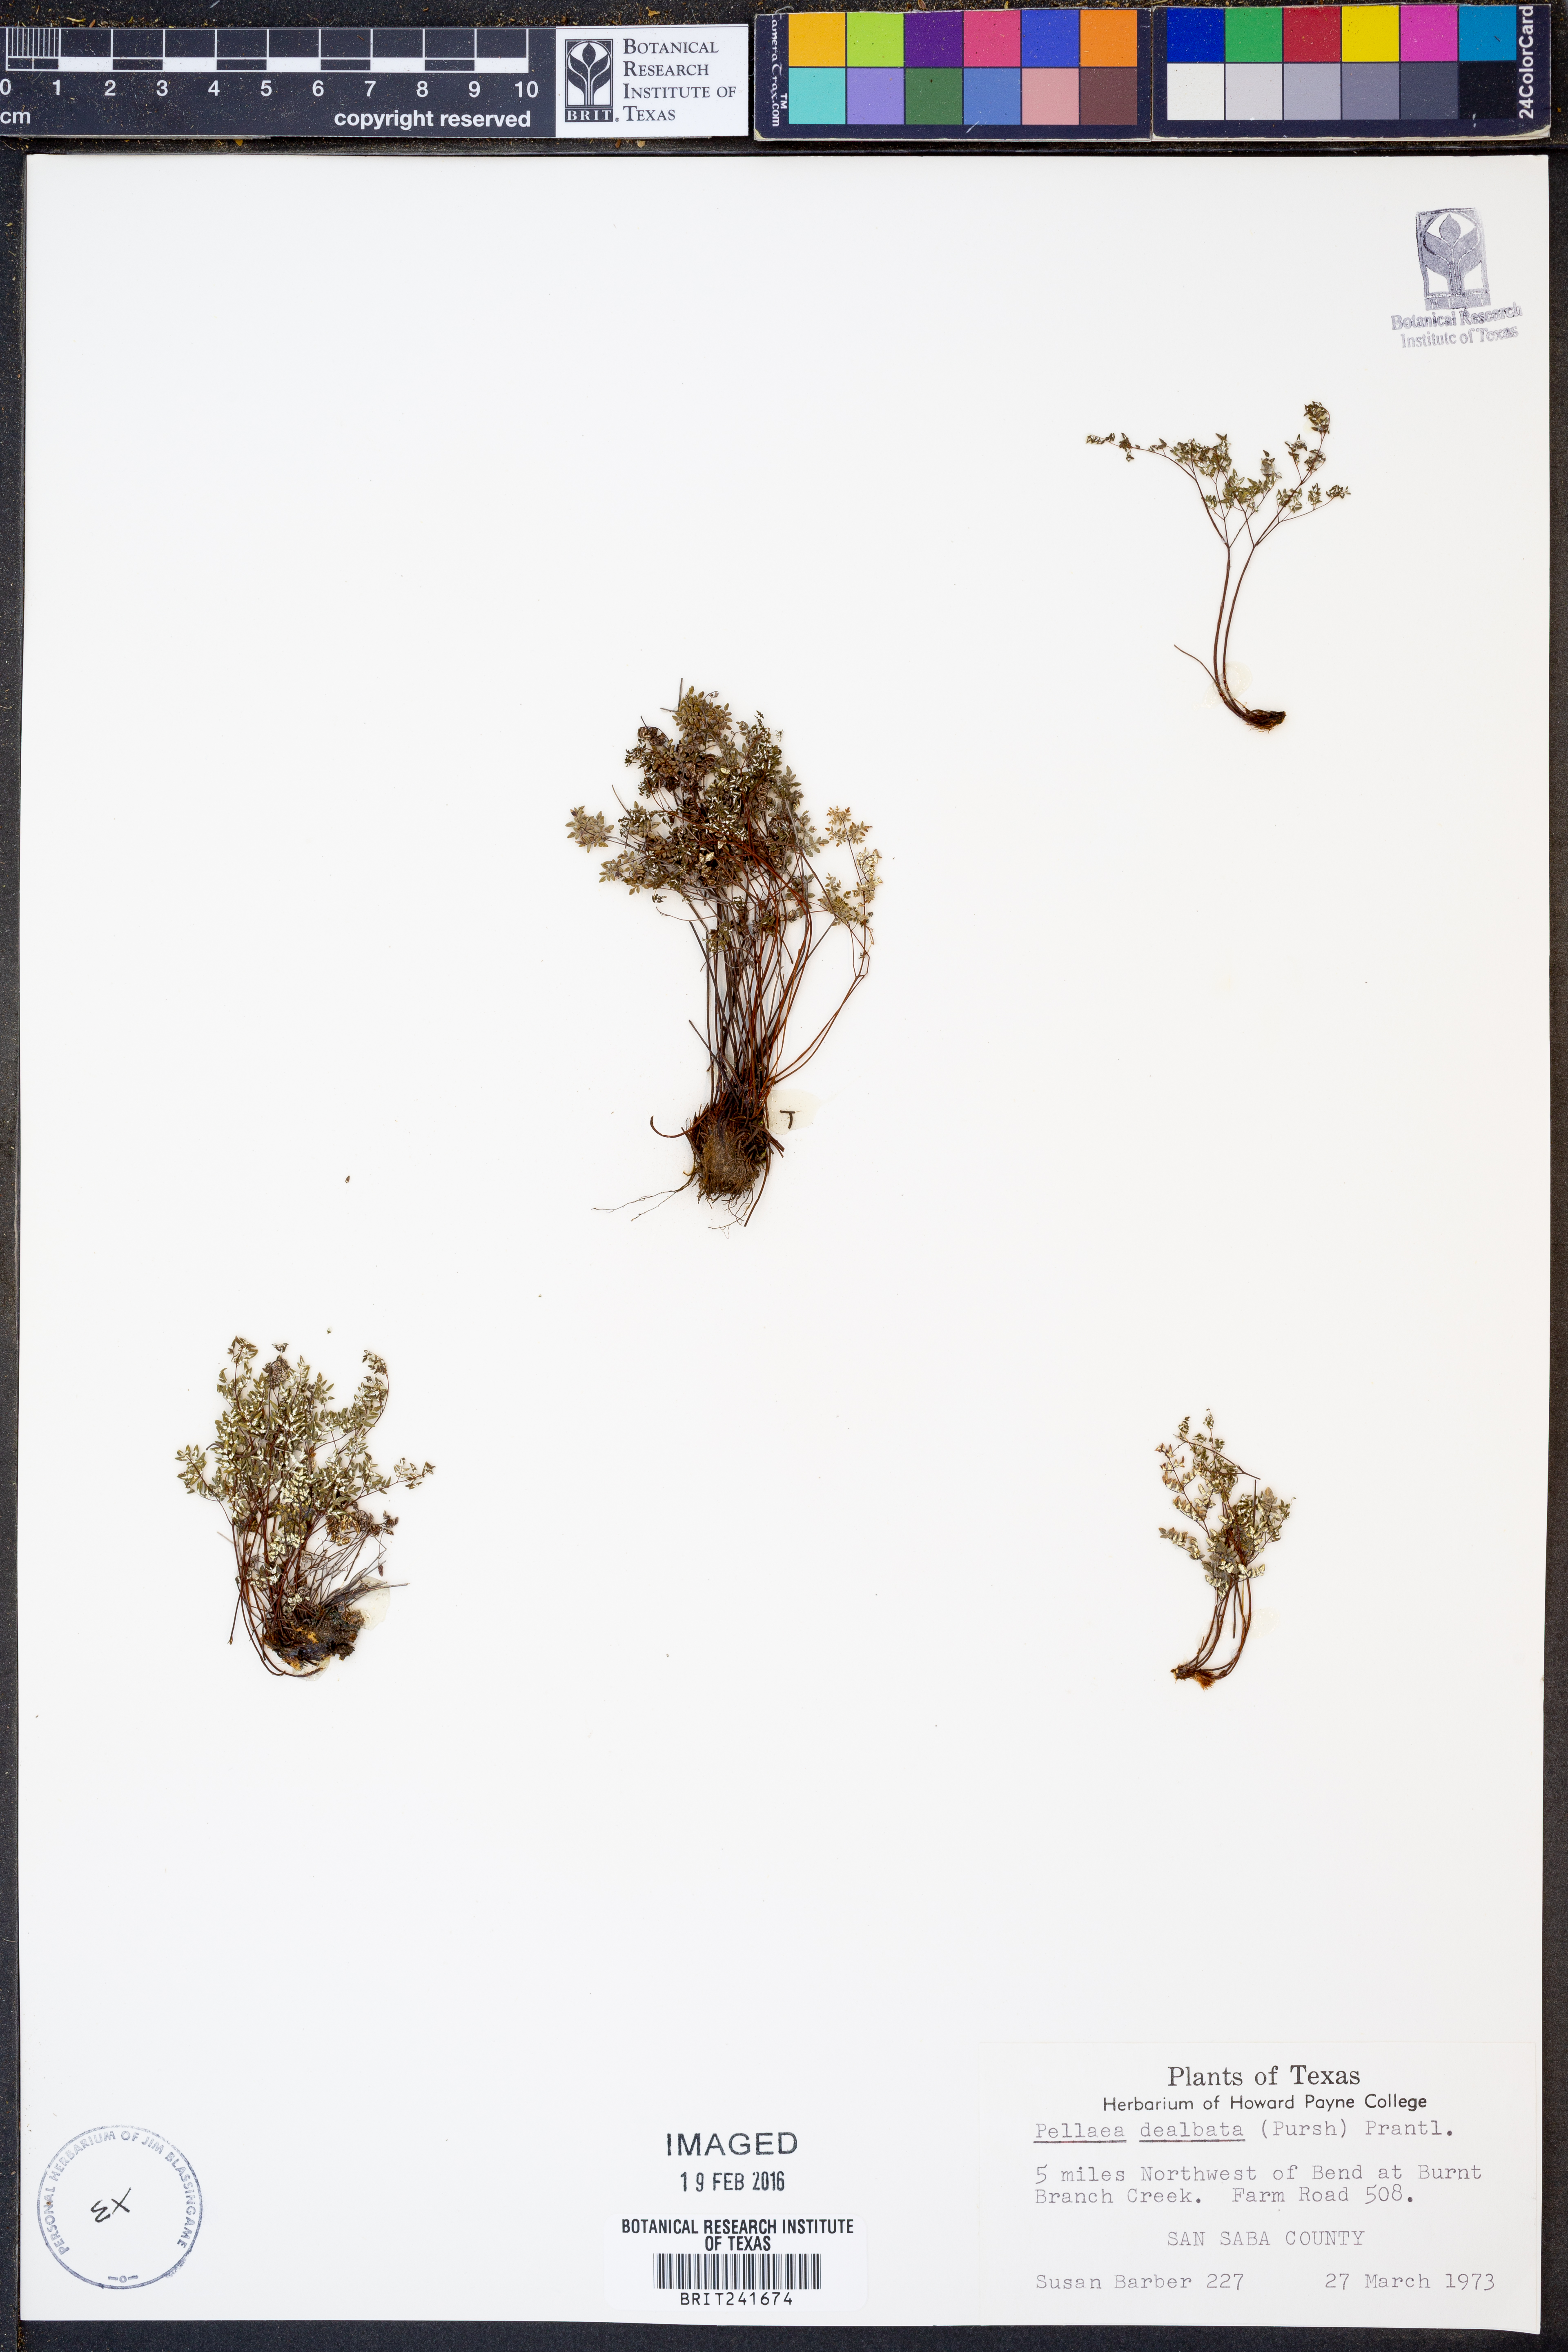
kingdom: Plantae
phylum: Tracheophyta
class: Polypodiopsida
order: Polypodiales
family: Pteridaceae
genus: Argyrochosma
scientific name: Argyrochosma dealbata
